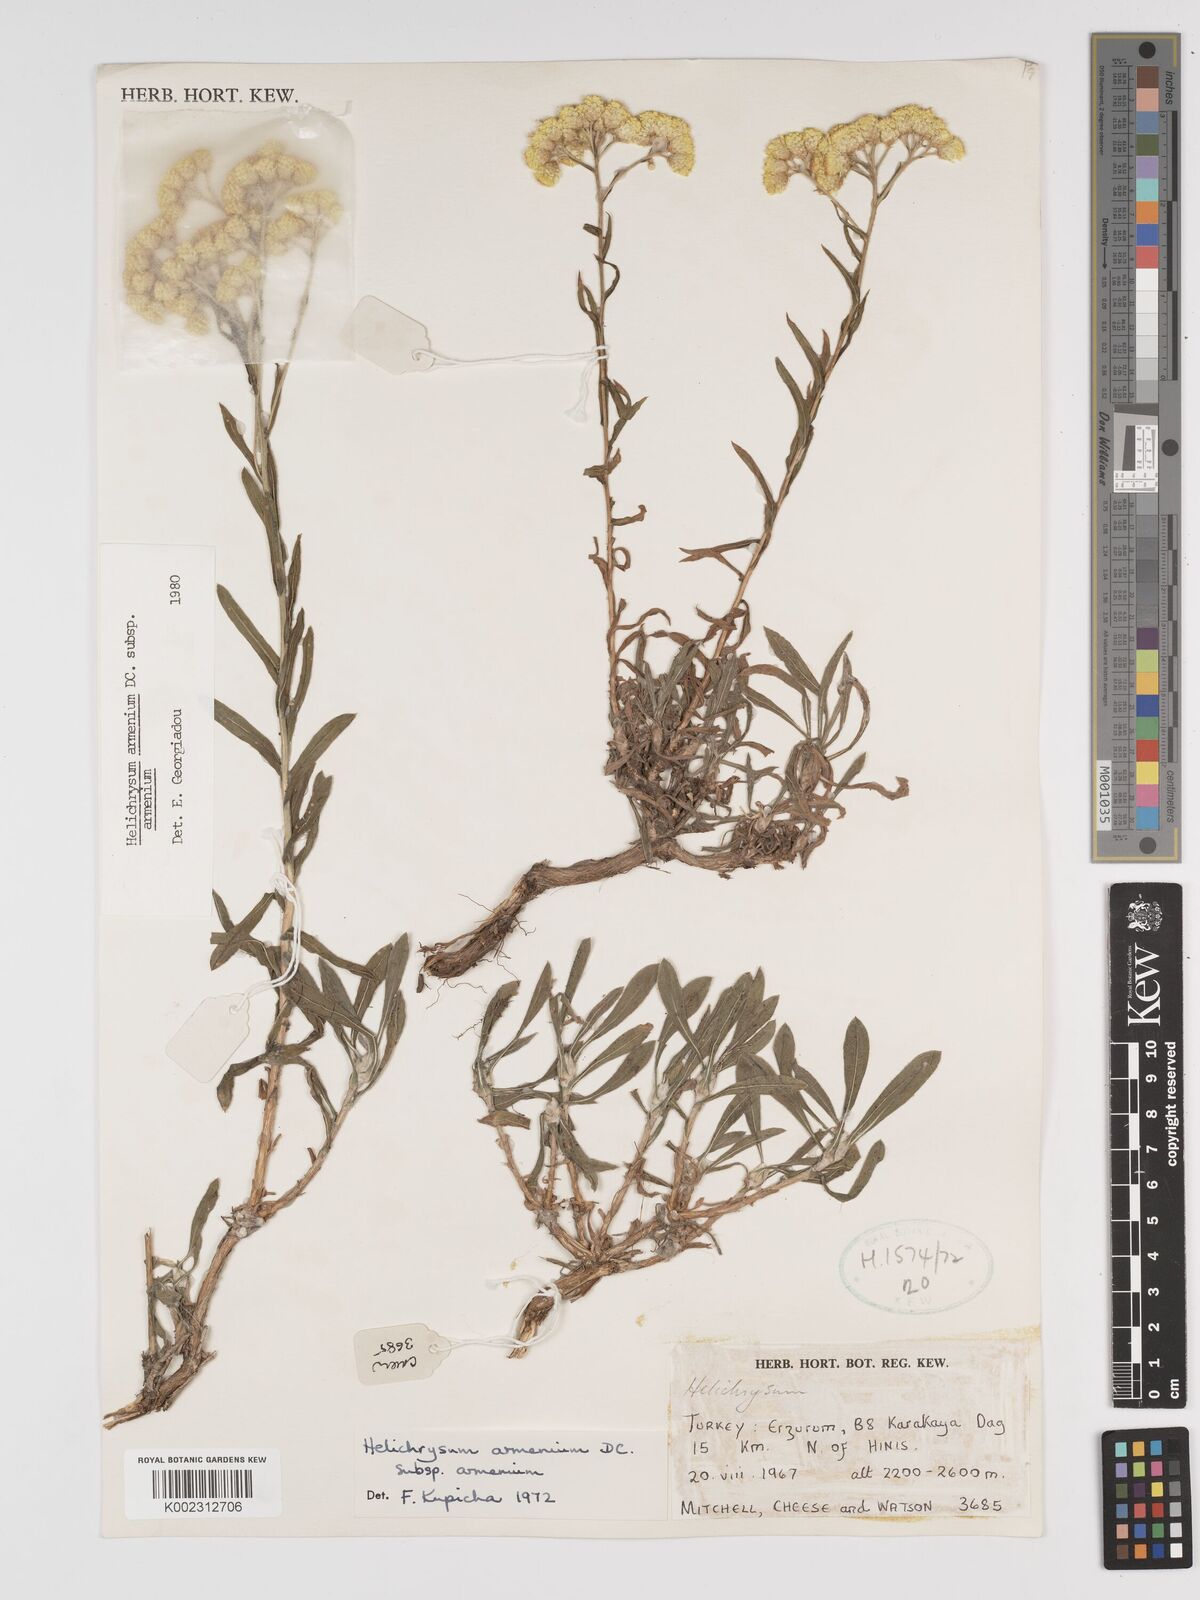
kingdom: Plantae
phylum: Tracheophyta
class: Magnoliopsida
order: Asterales
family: Asteraceae
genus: Helichrysum
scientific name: Helichrysum armenium
